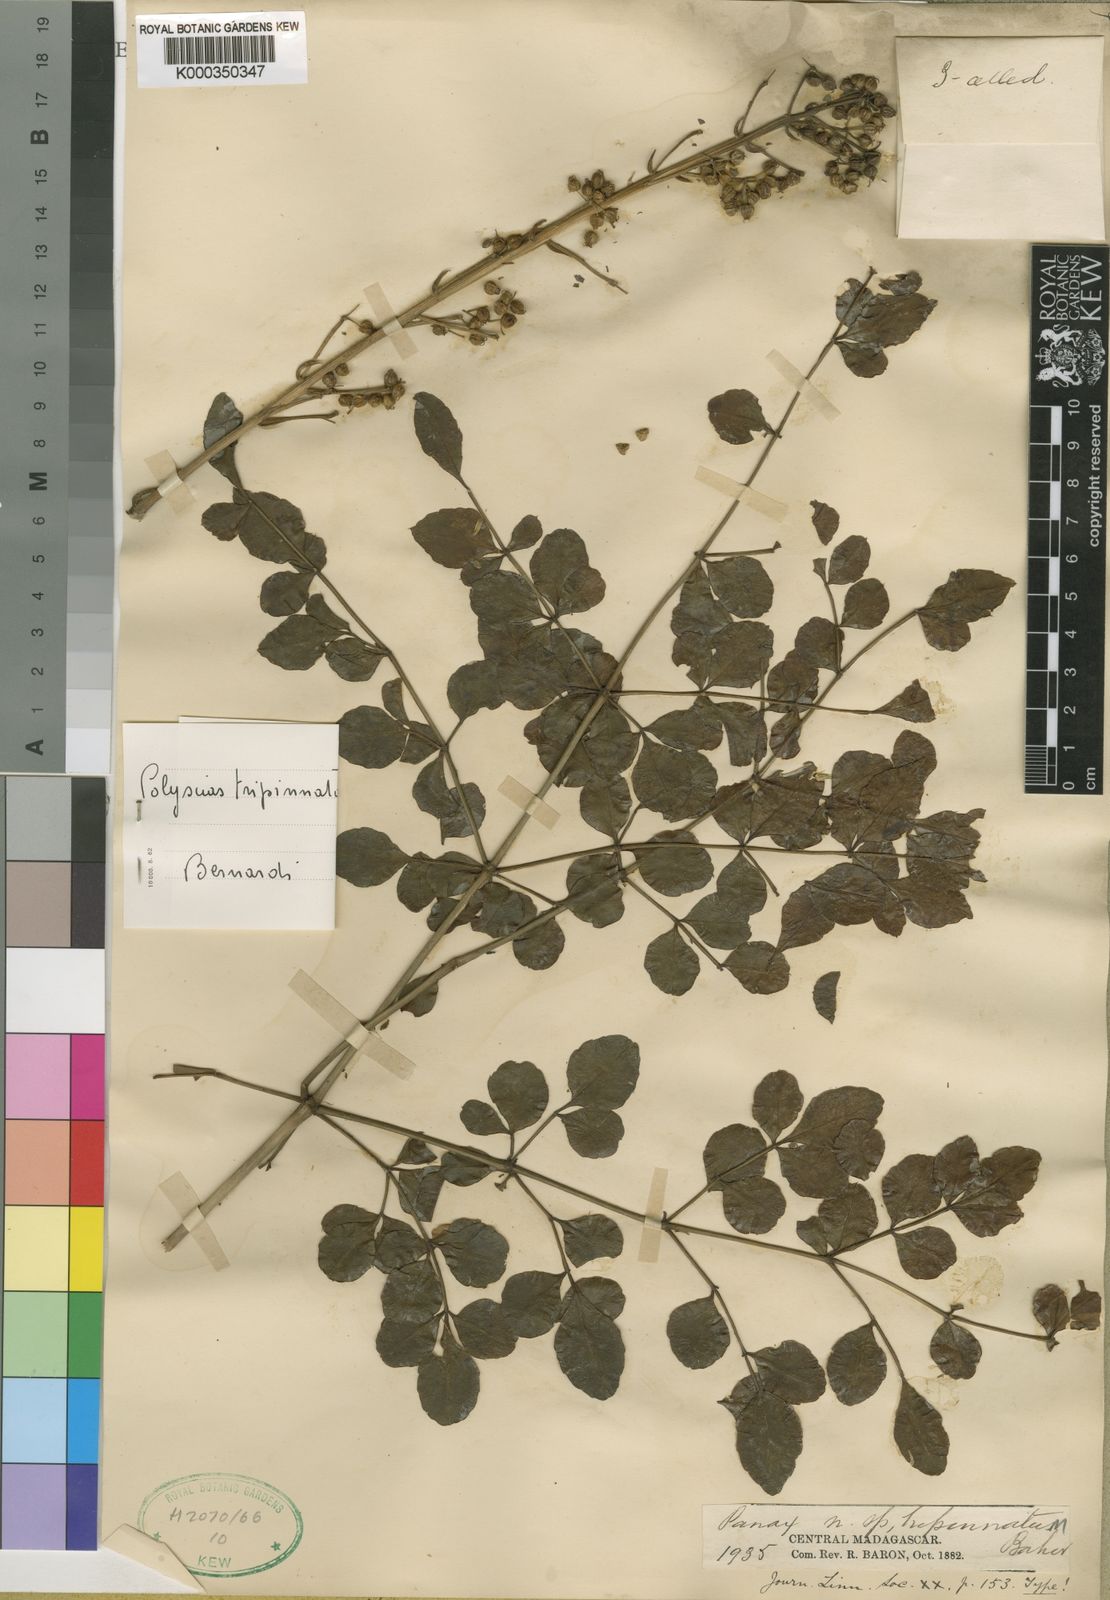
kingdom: Plantae
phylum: Tracheophyta
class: Magnoliopsida
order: Apiales
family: Araliaceae
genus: Polyscias
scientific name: Polyscias tripinnata
